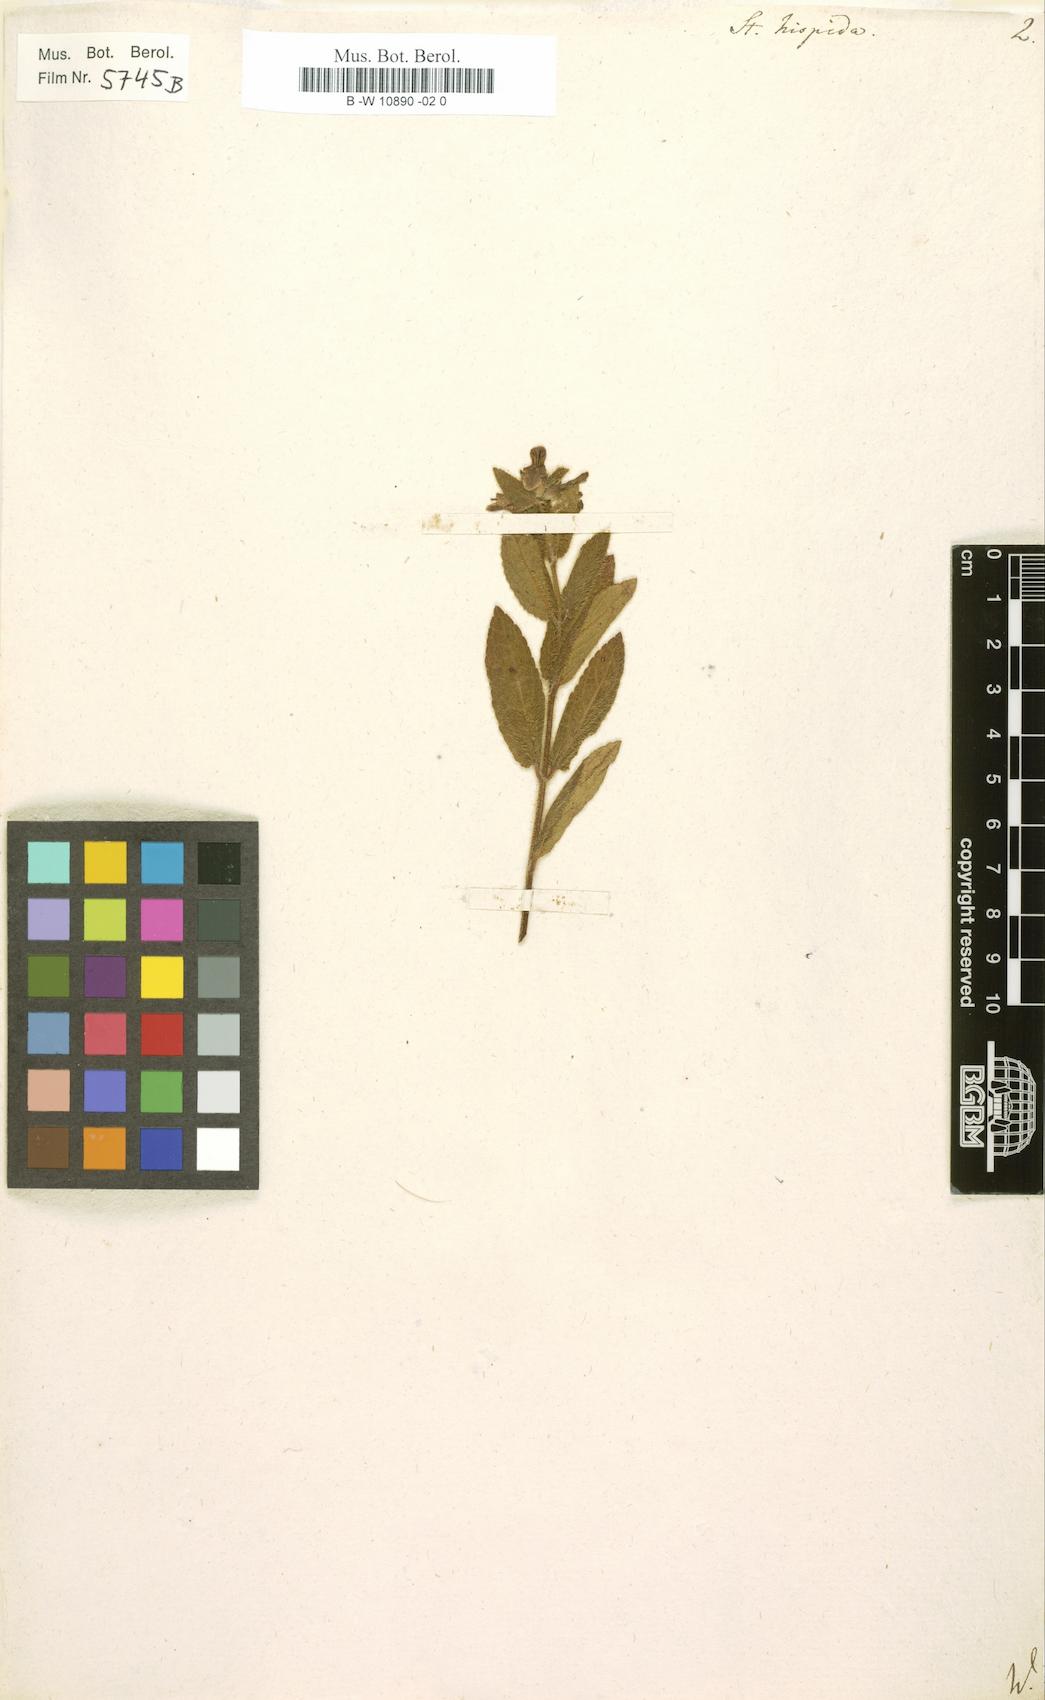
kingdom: Plantae
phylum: Tracheophyta
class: Magnoliopsida
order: Lamiales
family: Lamiaceae
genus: Stachys
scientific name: Stachys hispida
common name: Hispid hedge-nettle
